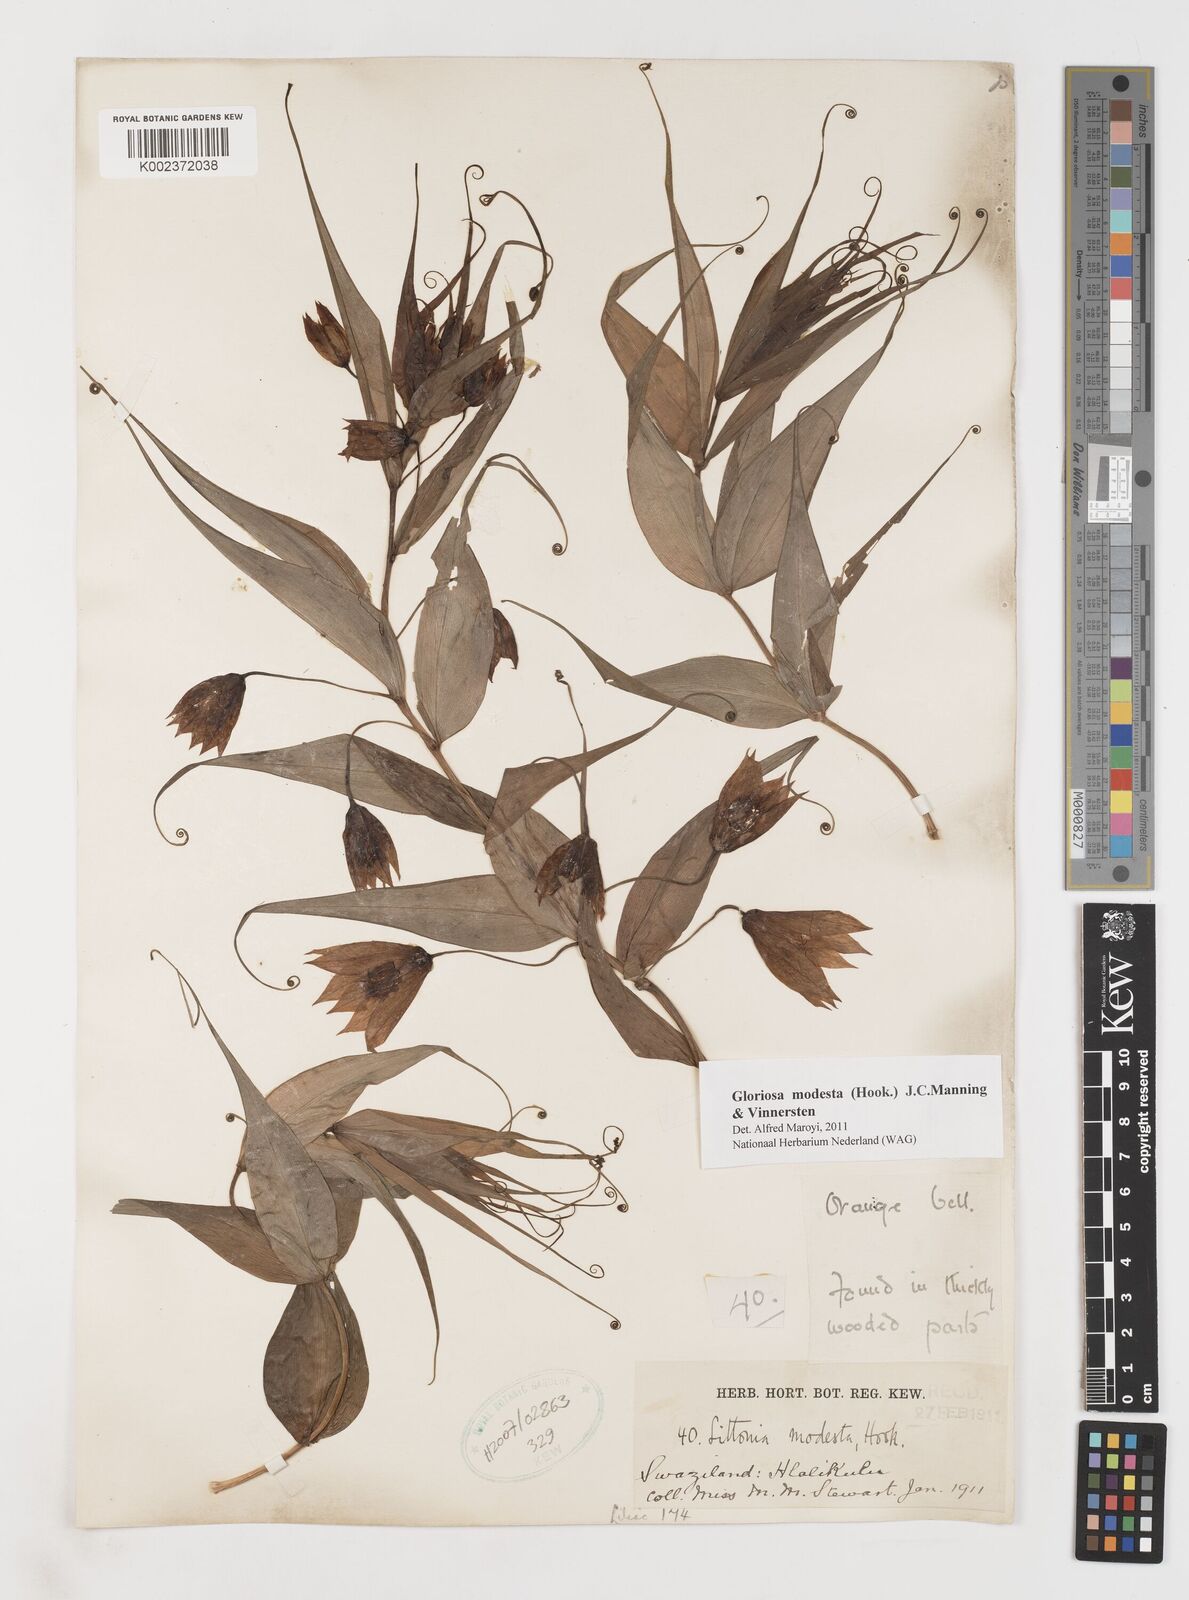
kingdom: Plantae
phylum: Tracheophyta
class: Liliopsida
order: Liliales
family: Colchicaceae
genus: Gloriosa
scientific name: Gloriosa modesta
